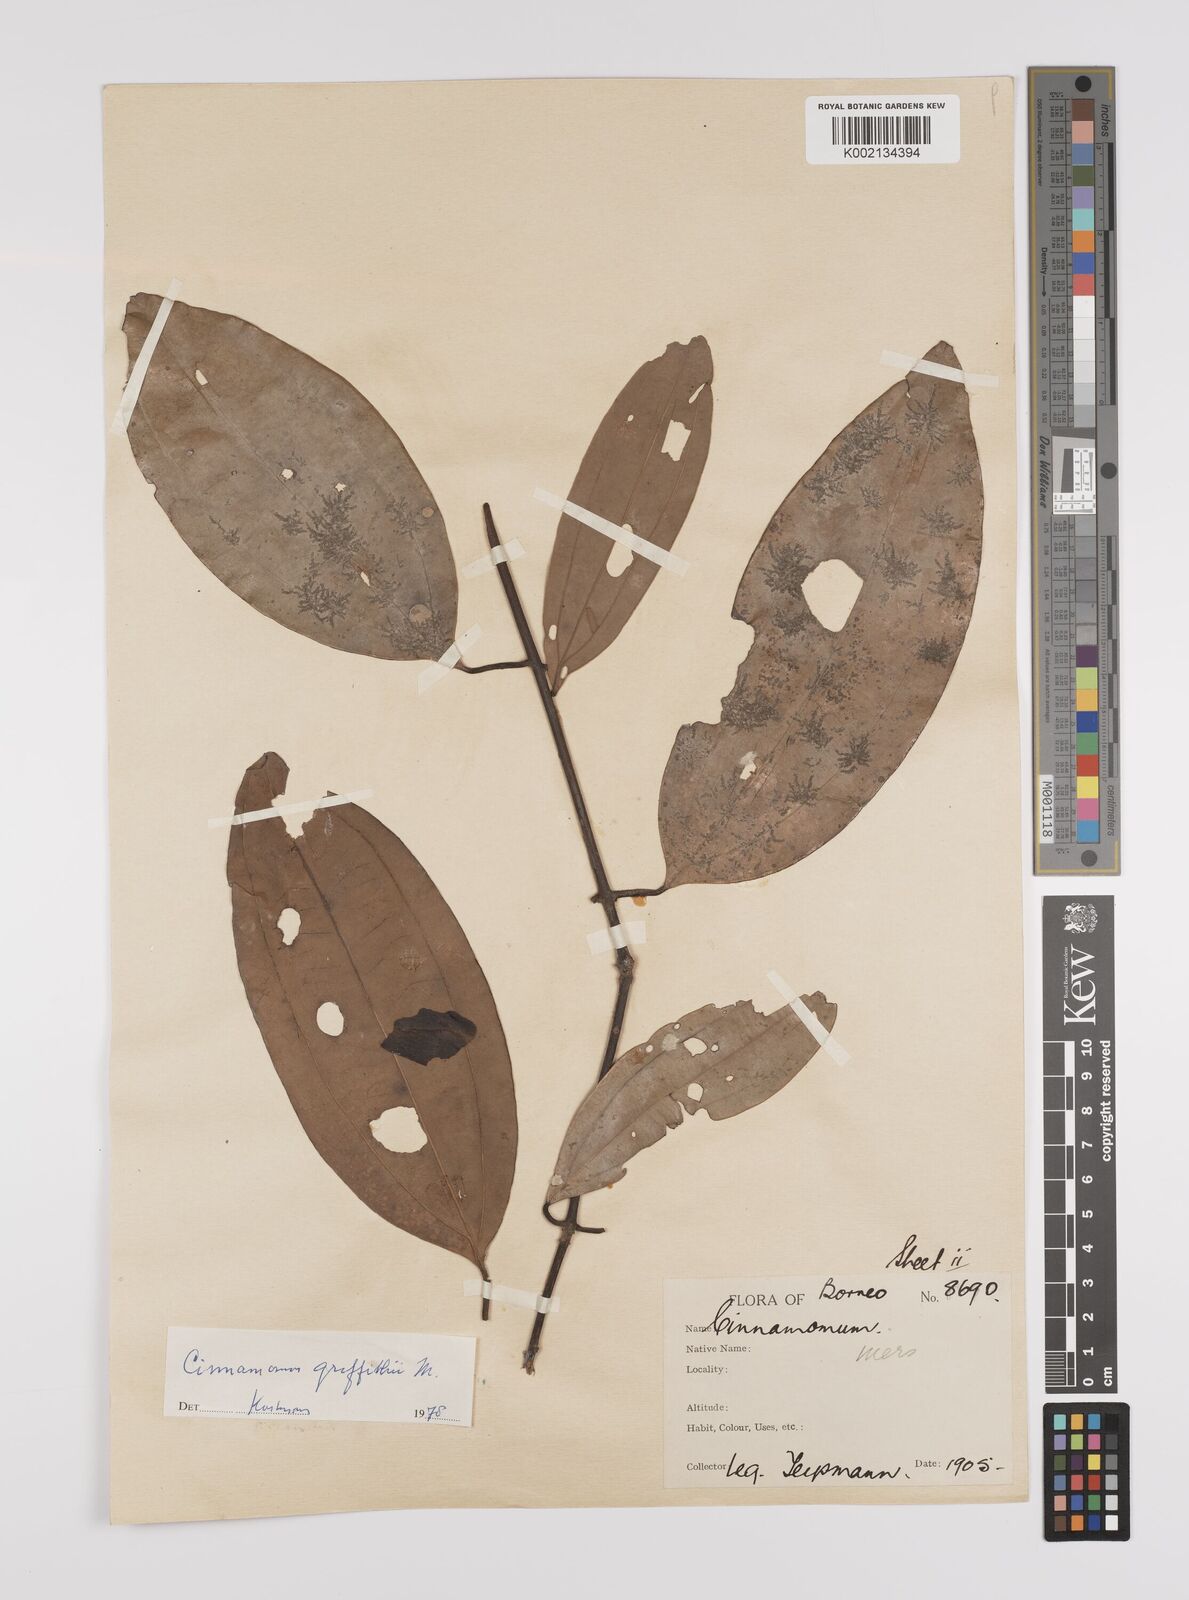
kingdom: Plantae
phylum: Tracheophyta
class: Magnoliopsida
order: Laurales
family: Lauraceae
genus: Cinnamomum
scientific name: Cinnamomum iners
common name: Wild cinnamon
